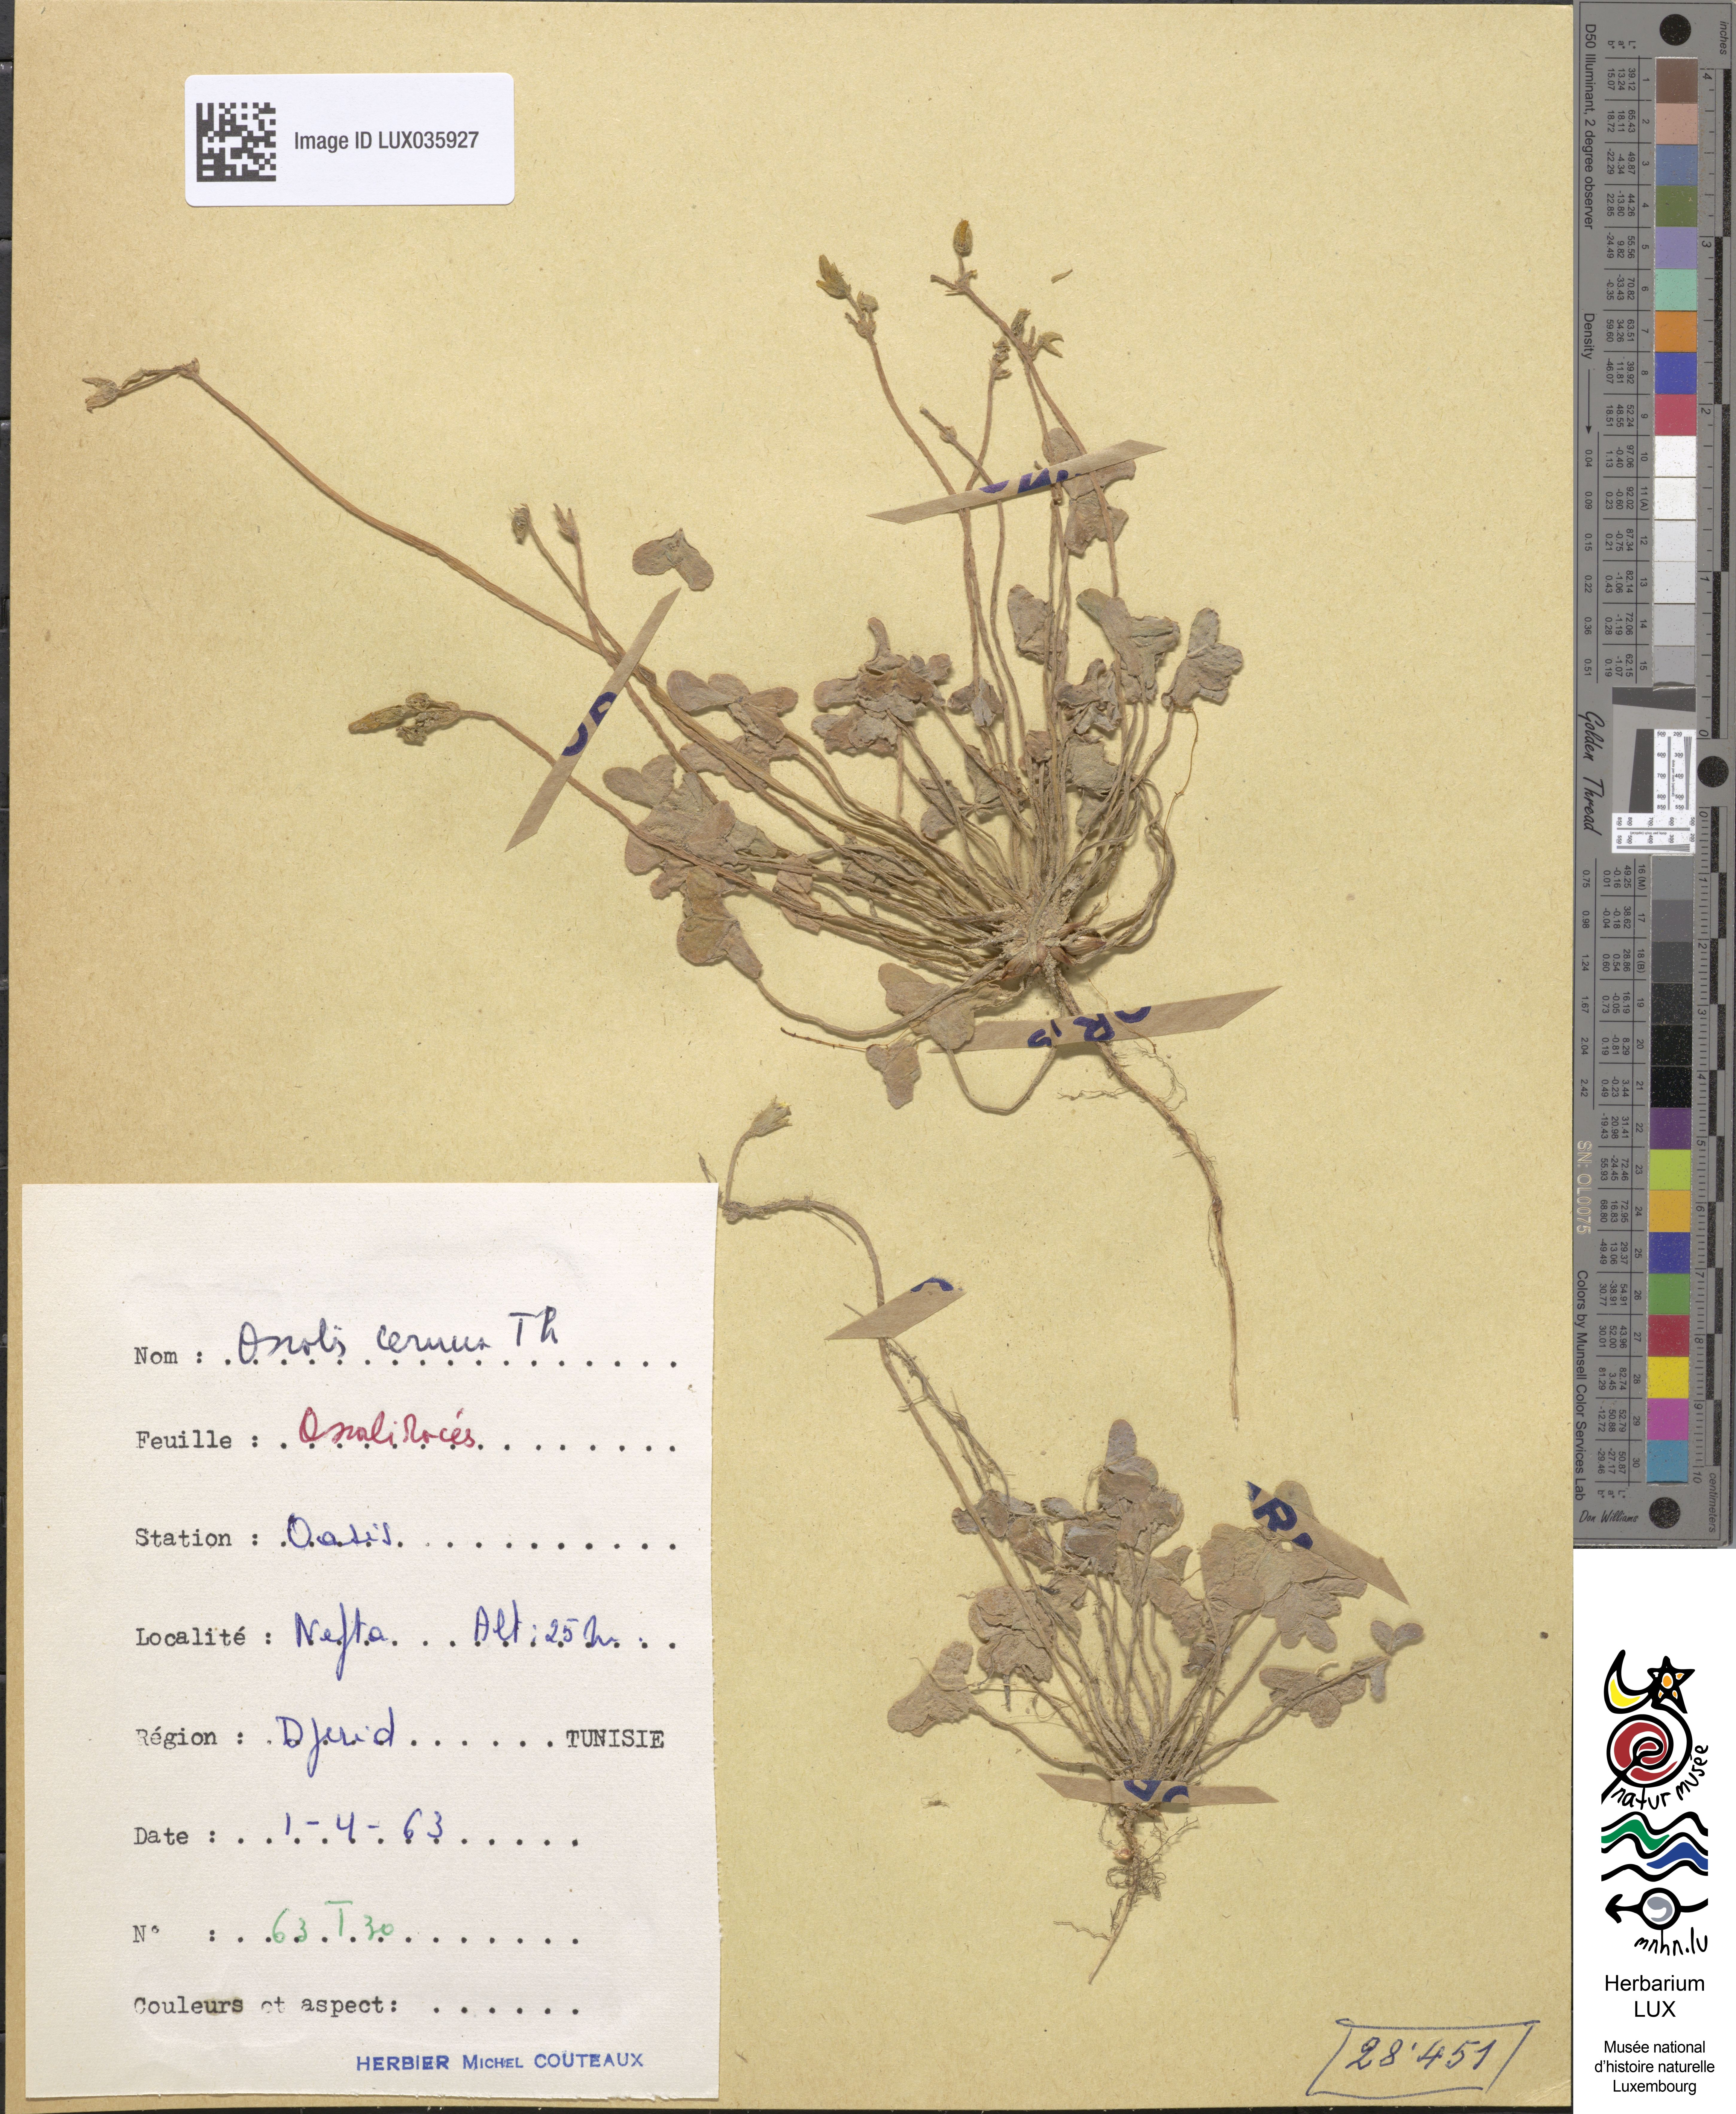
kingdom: Plantae
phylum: Tracheophyta
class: Magnoliopsida
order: Oxalidales
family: Oxalidaceae
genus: Oxalis
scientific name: Oxalis pes-caprae
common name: Bermuda-buttercup
